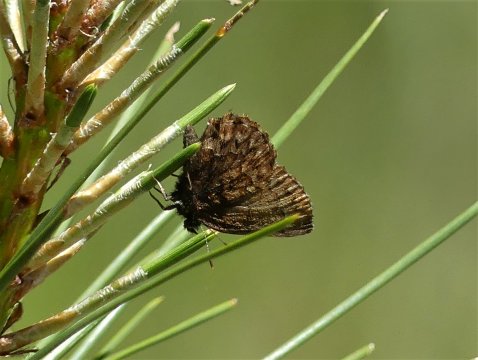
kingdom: Animalia
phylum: Arthropoda
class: Insecta
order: Lepidoptera
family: Lycaenidae
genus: Incisalia
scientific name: Incisalia eryphon
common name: Western Pine Elfin
